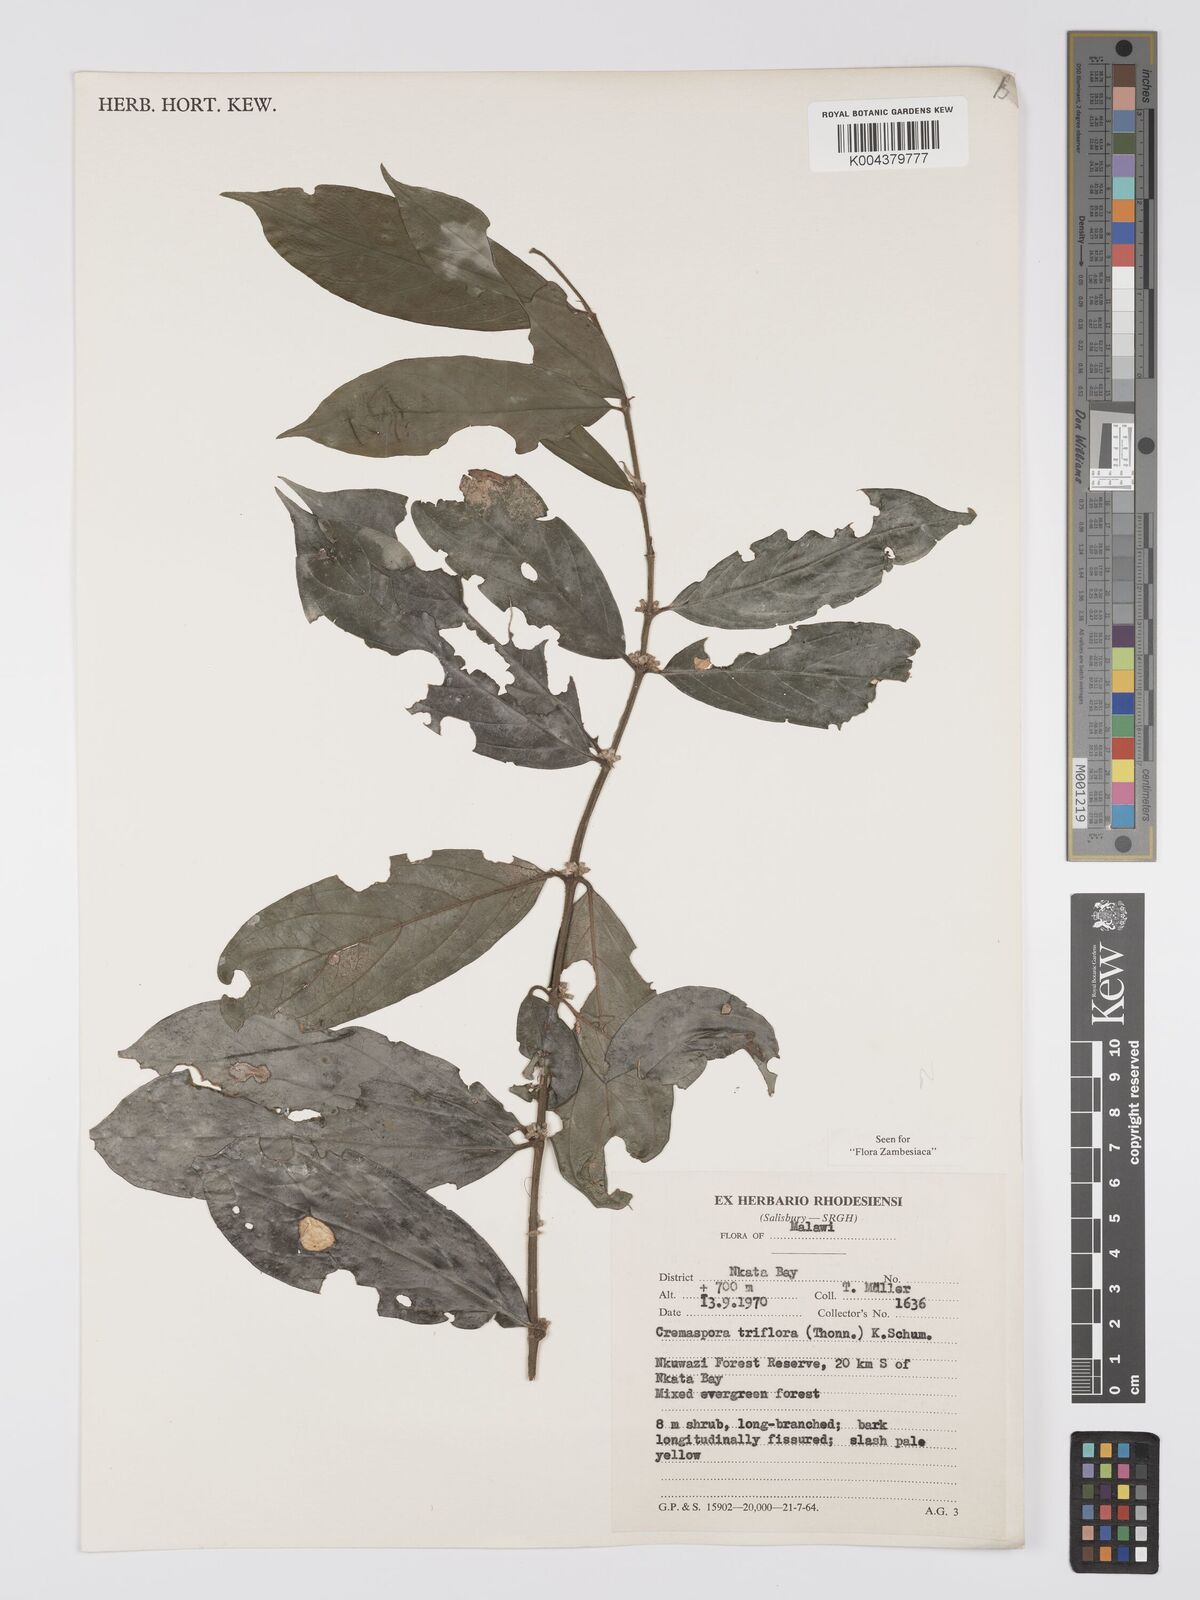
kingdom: Plantae
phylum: Tracheophyta
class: Magnoliopsida
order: Gentianales
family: Rubiaceae
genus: Cremaspora
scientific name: Cremaspora triflora
